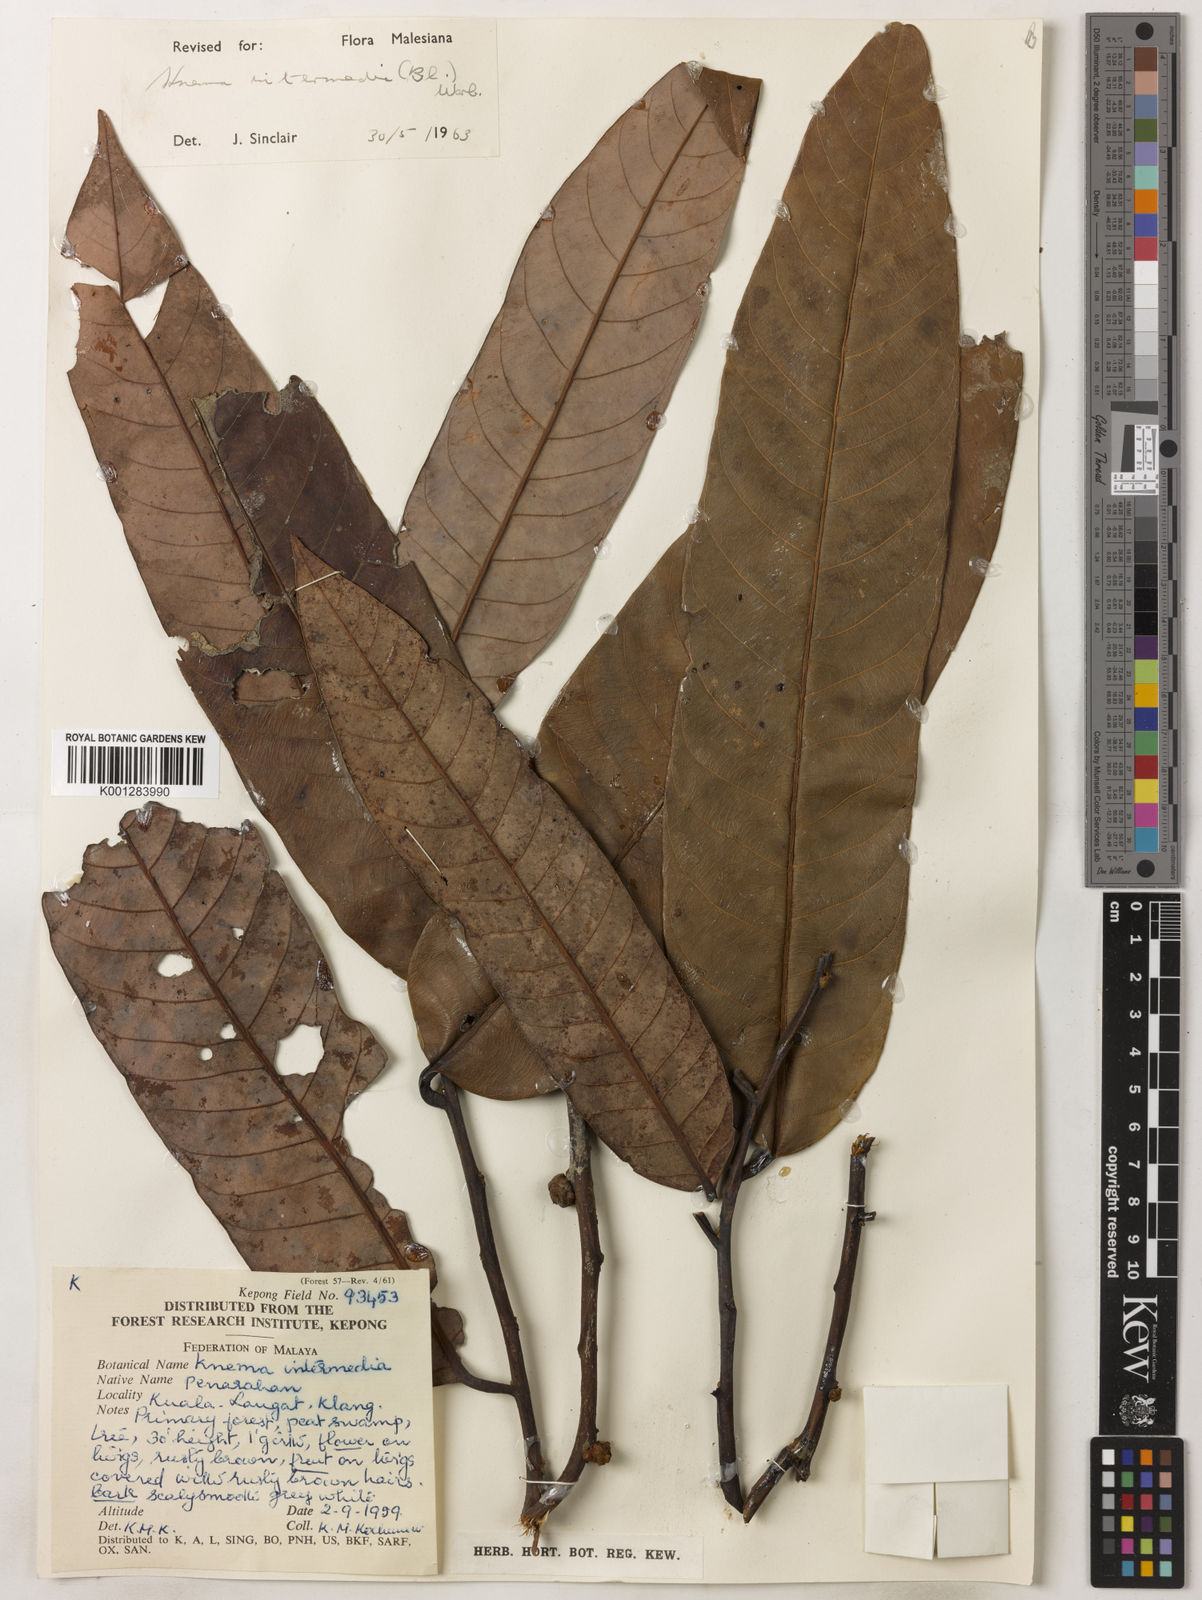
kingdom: Plantae
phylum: Tracheophyta
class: Magnoliopsida
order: Magnoliales
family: Myristicaceae
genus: Knema
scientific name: Knema intermedia
